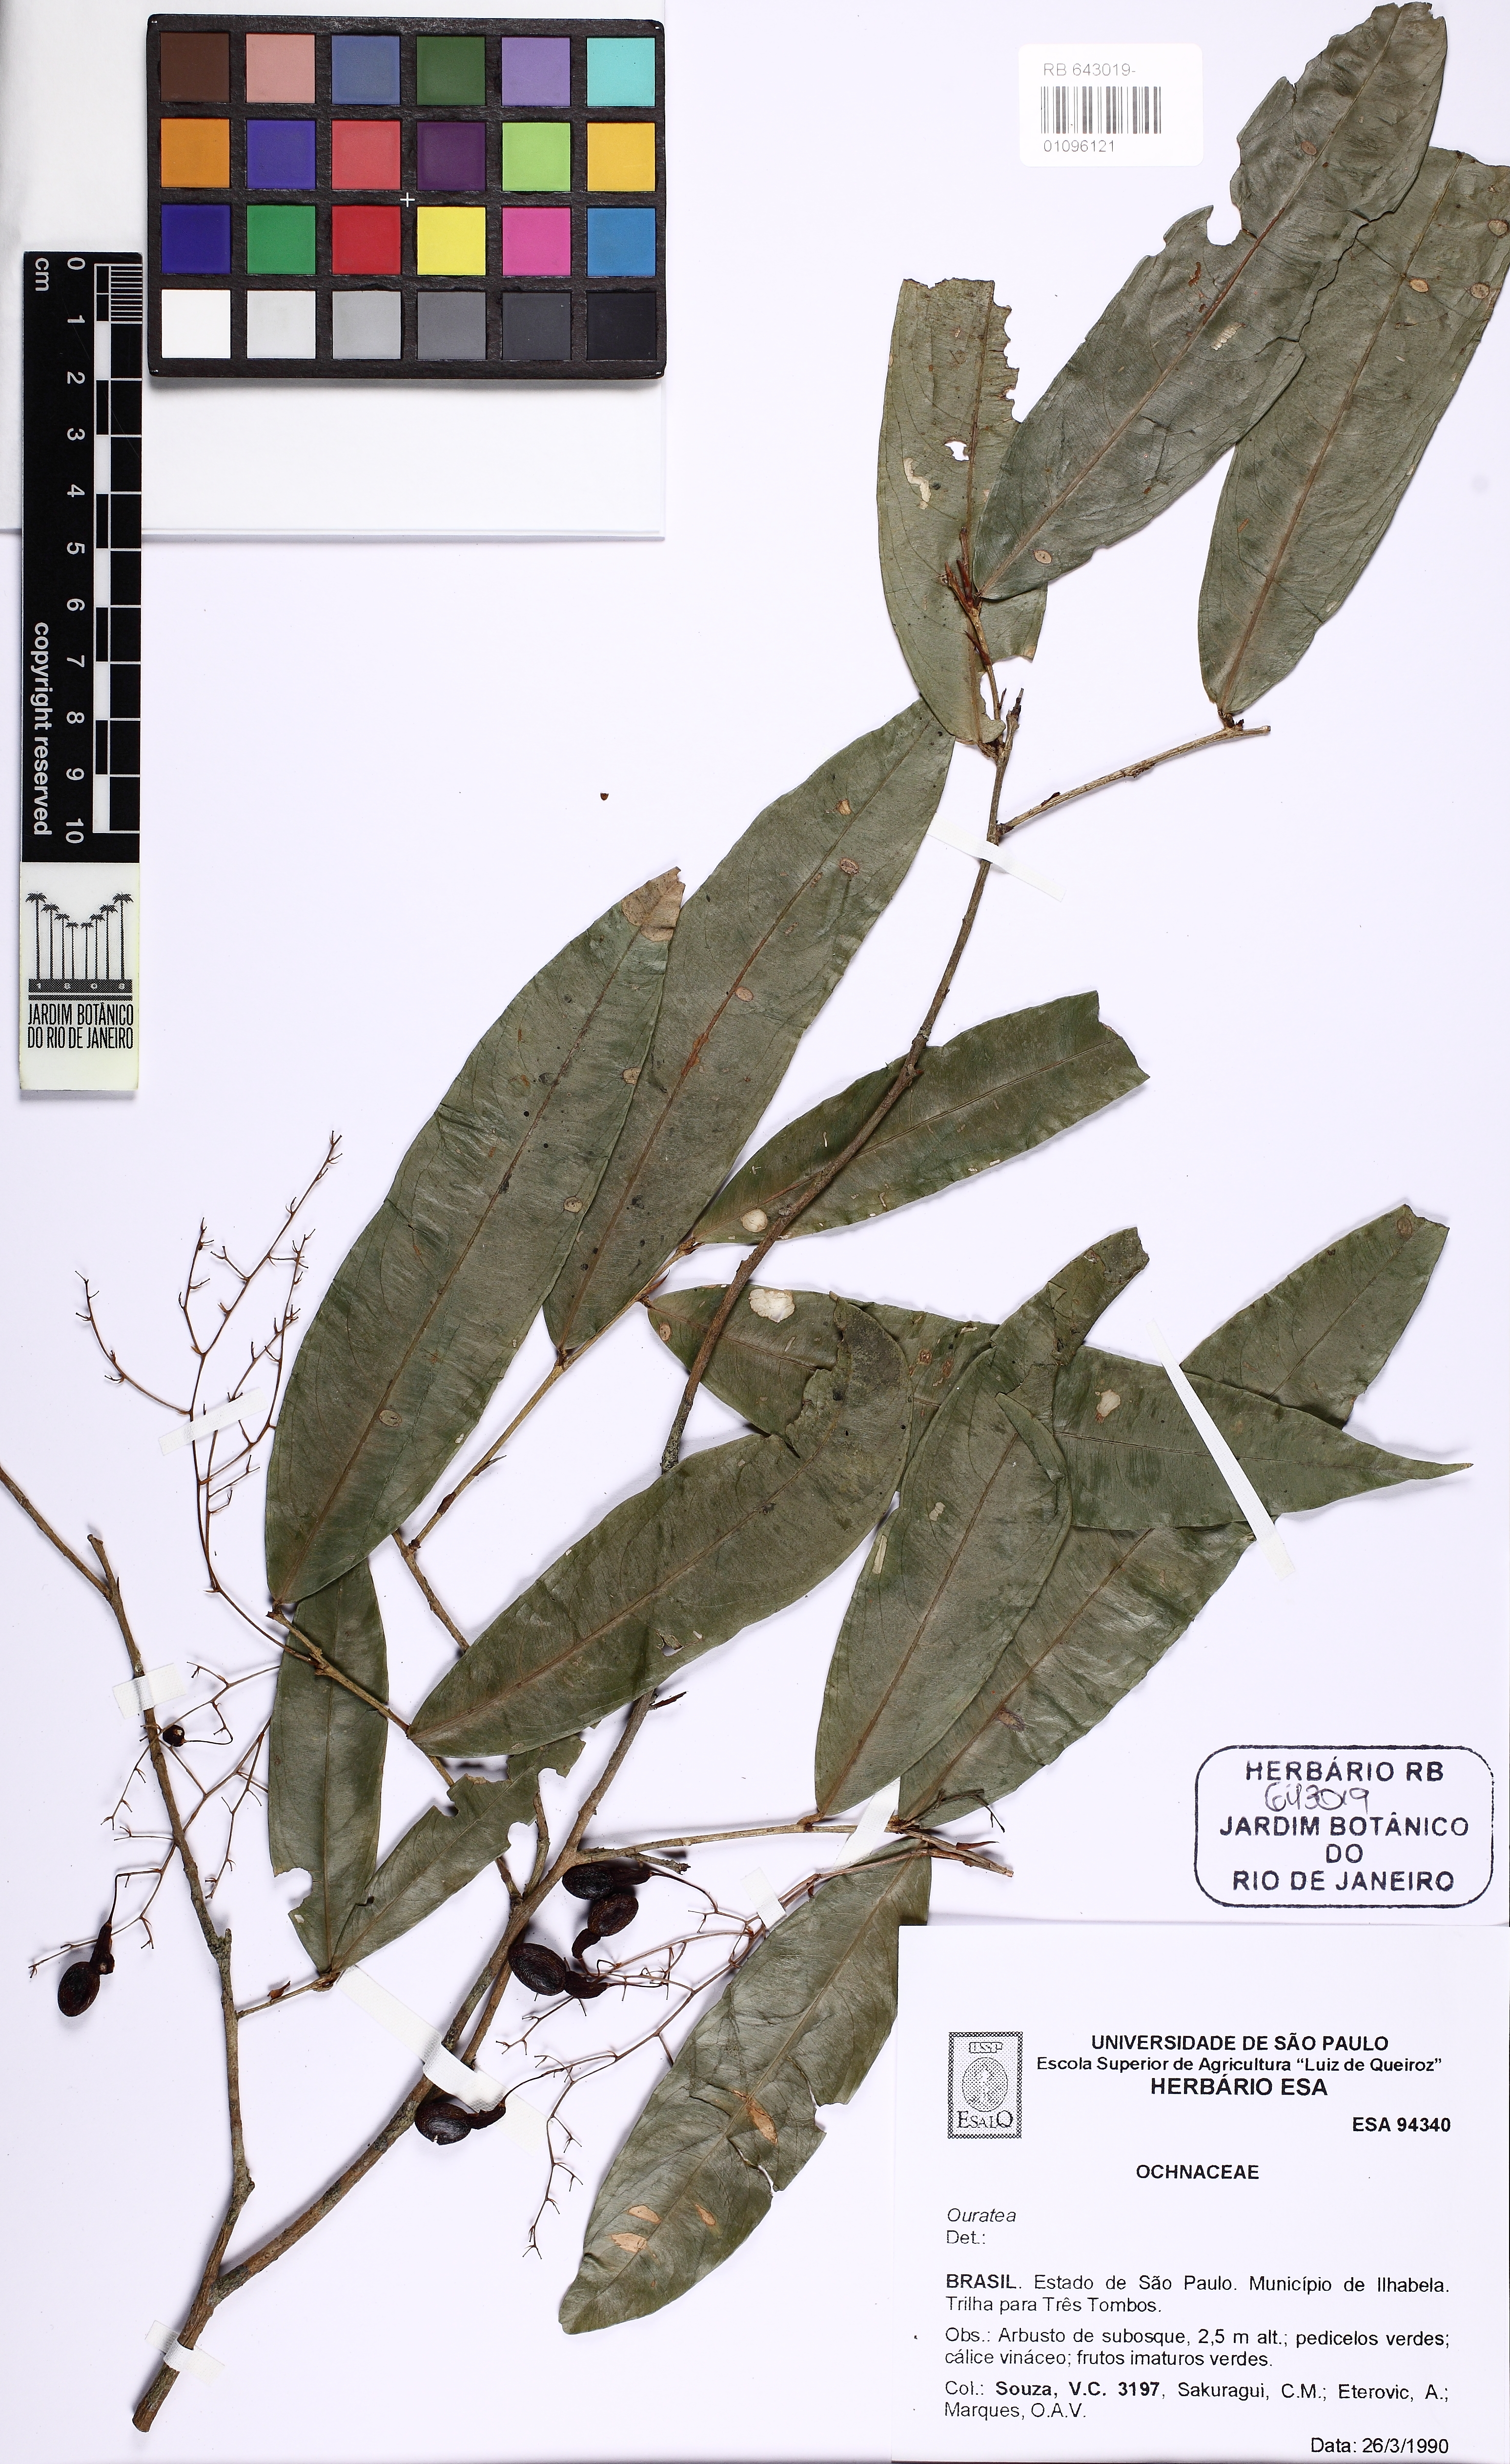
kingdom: Plantae
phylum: Tracheophyta
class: Magnoliopsida
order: Malpighiales
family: Ochnaceae
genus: Ouratea
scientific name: Ouratea
